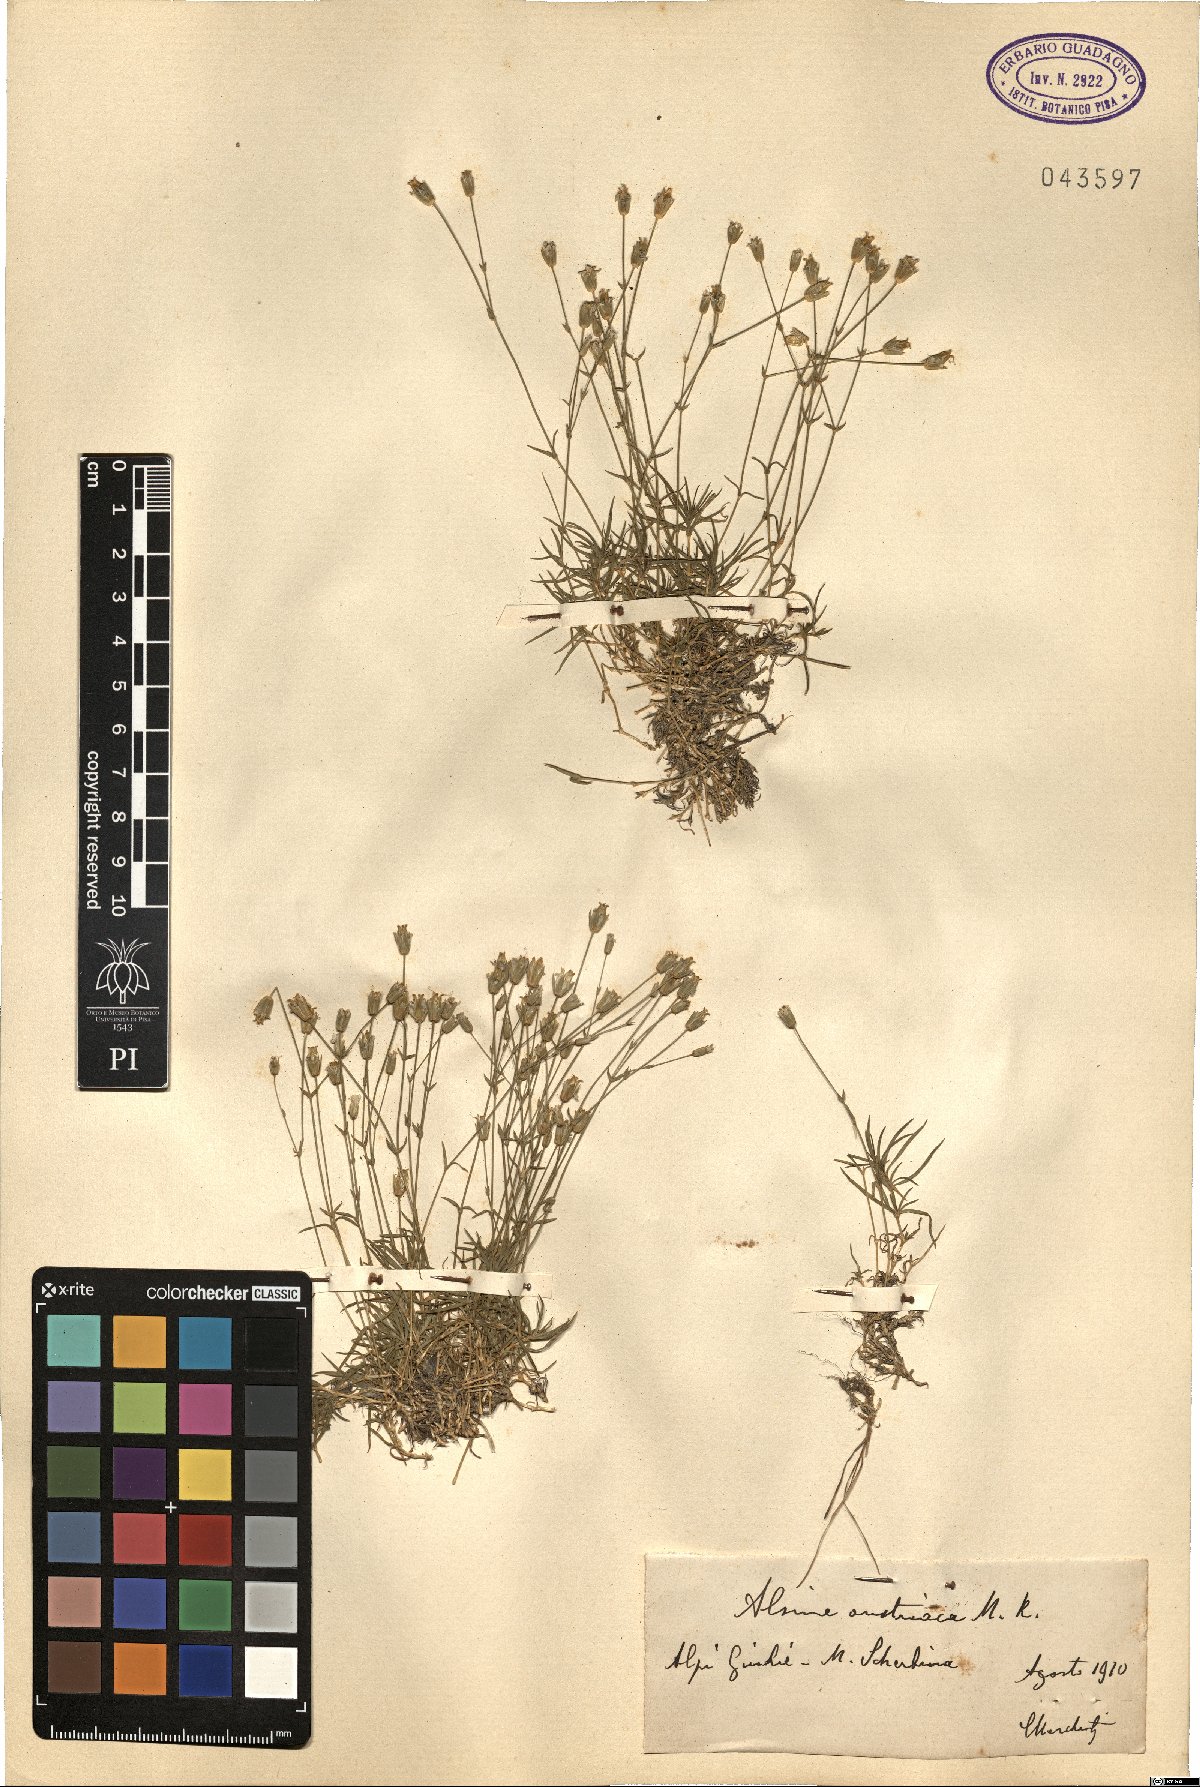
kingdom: Plantae
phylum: Tracheophyta
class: Magnoliopsida
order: Caryophyllales
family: Caryophyllaceae
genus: Sabulina
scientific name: Sabulina austriaca
